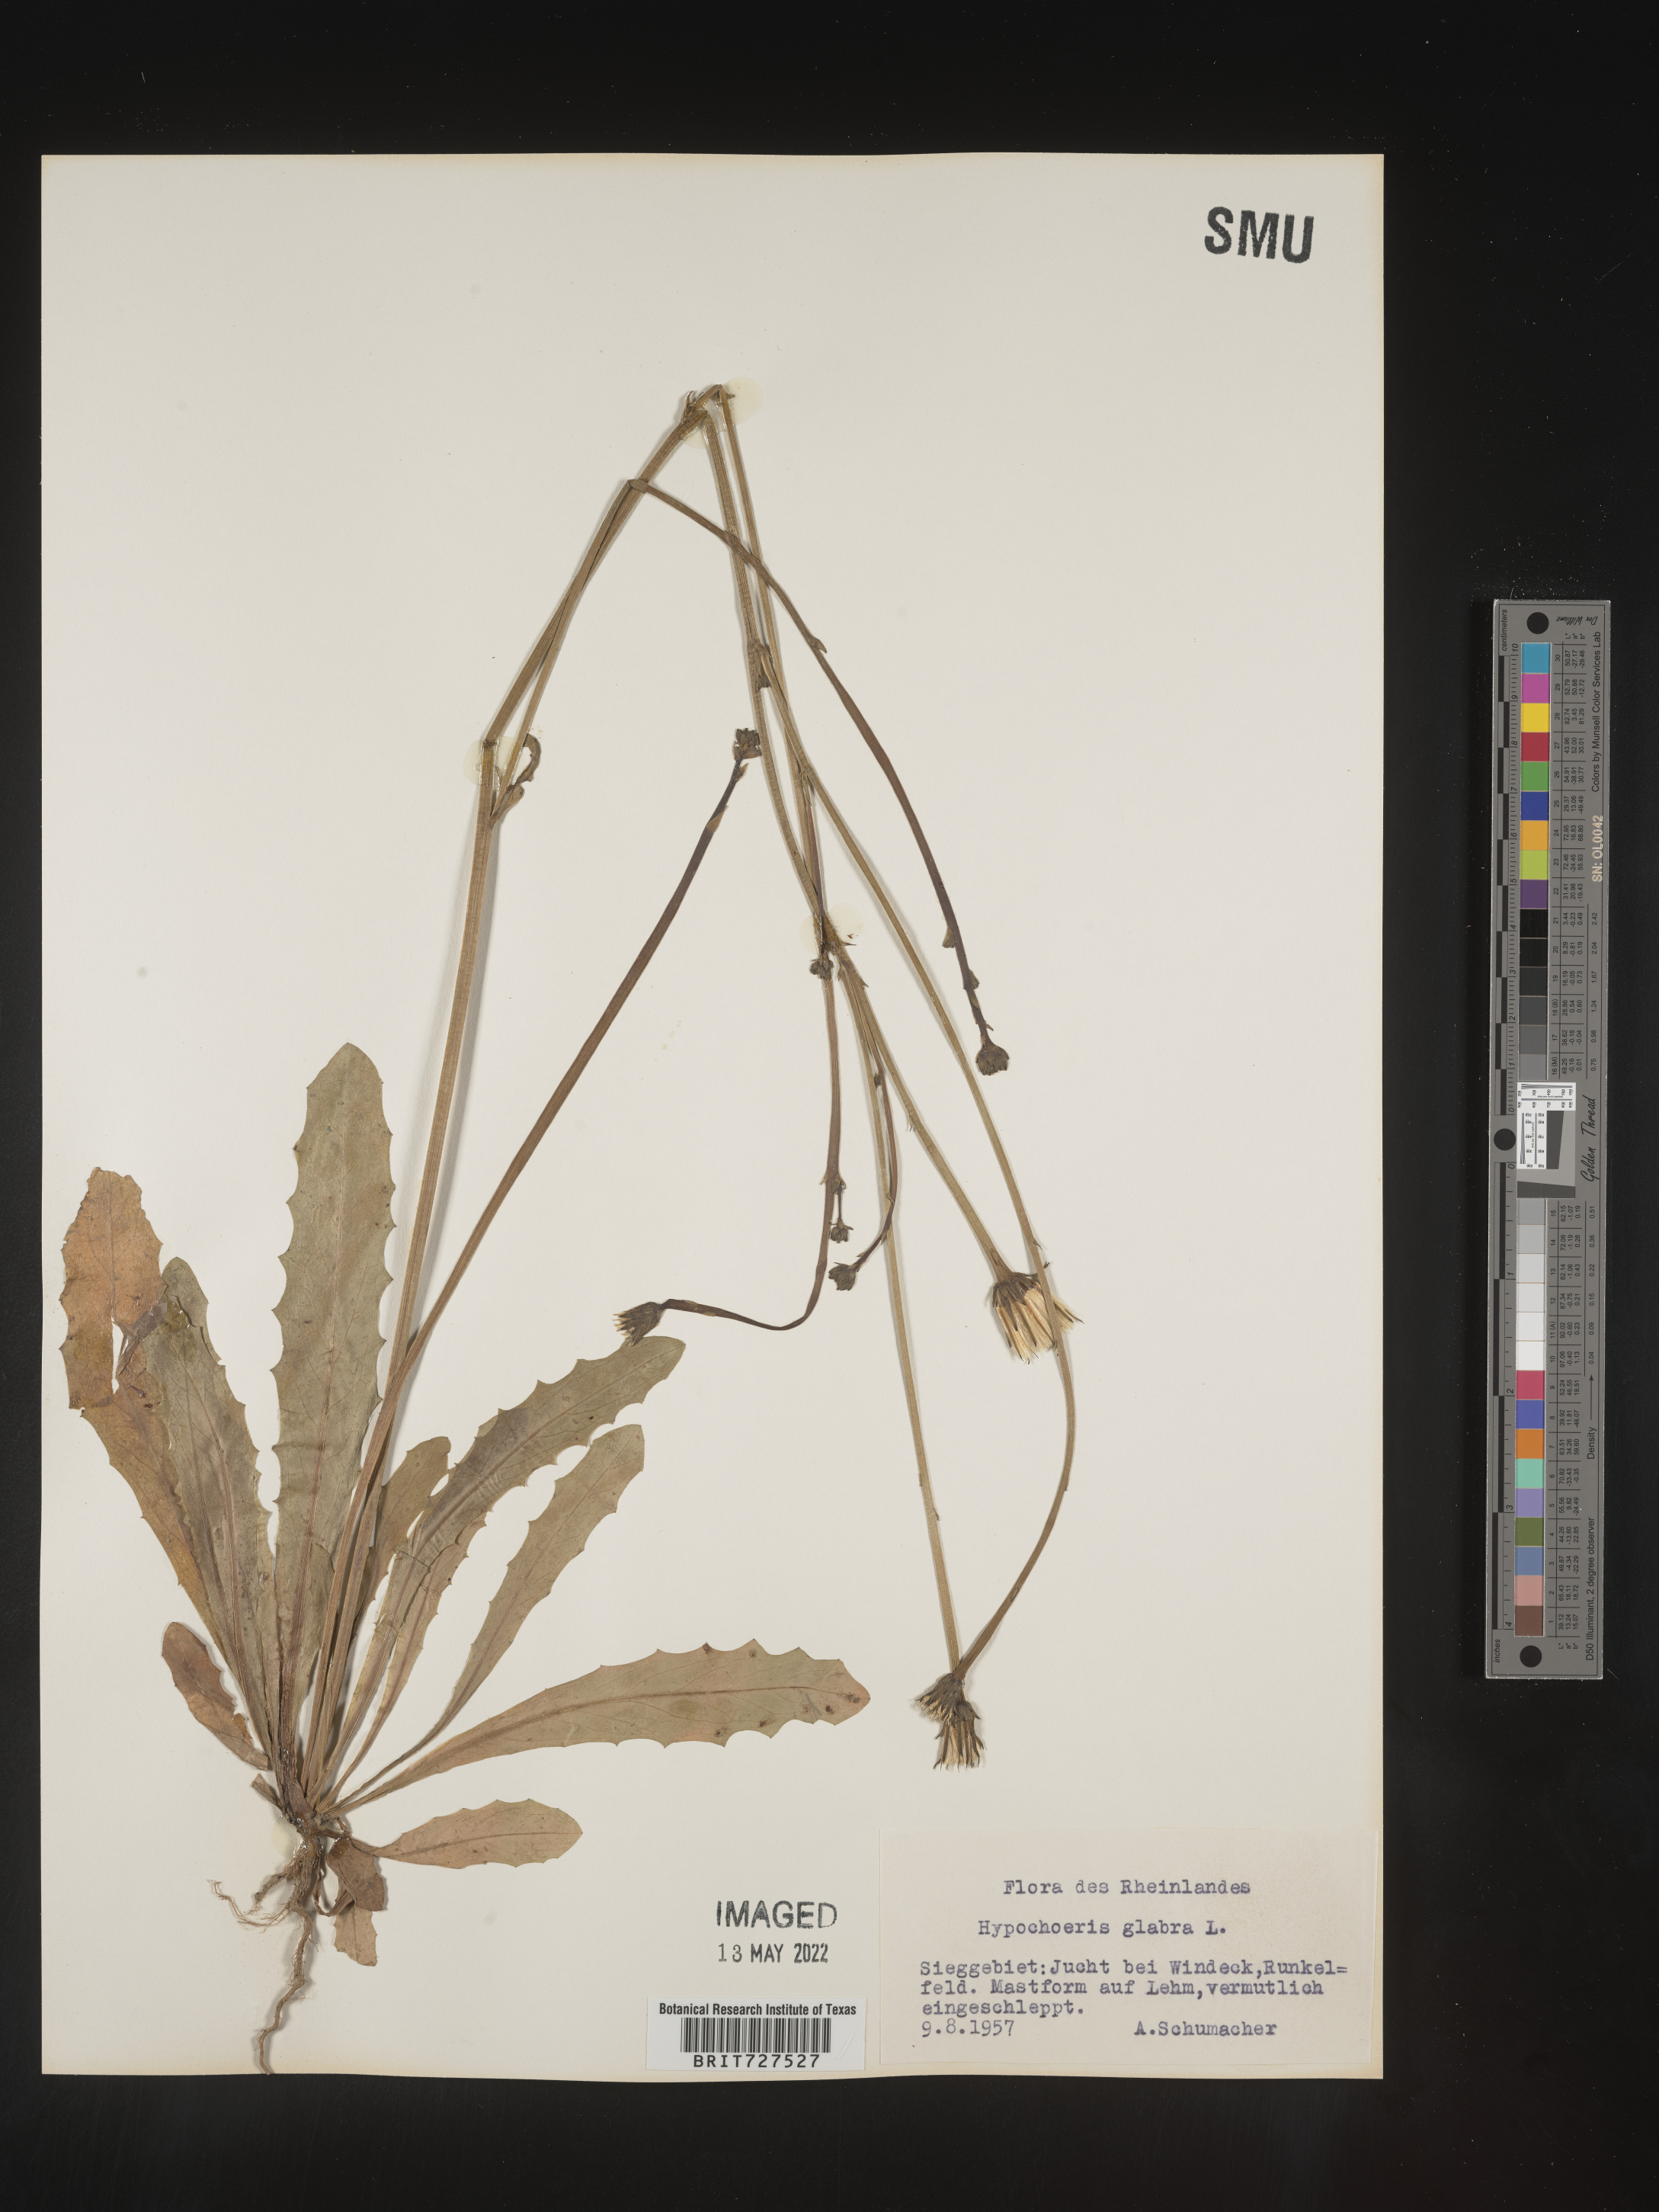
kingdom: Plantae
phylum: Tracheophyta
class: Magnoliopsida
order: Asterales
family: Asteraceae
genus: Hypochaeris
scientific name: Hypochaeris
